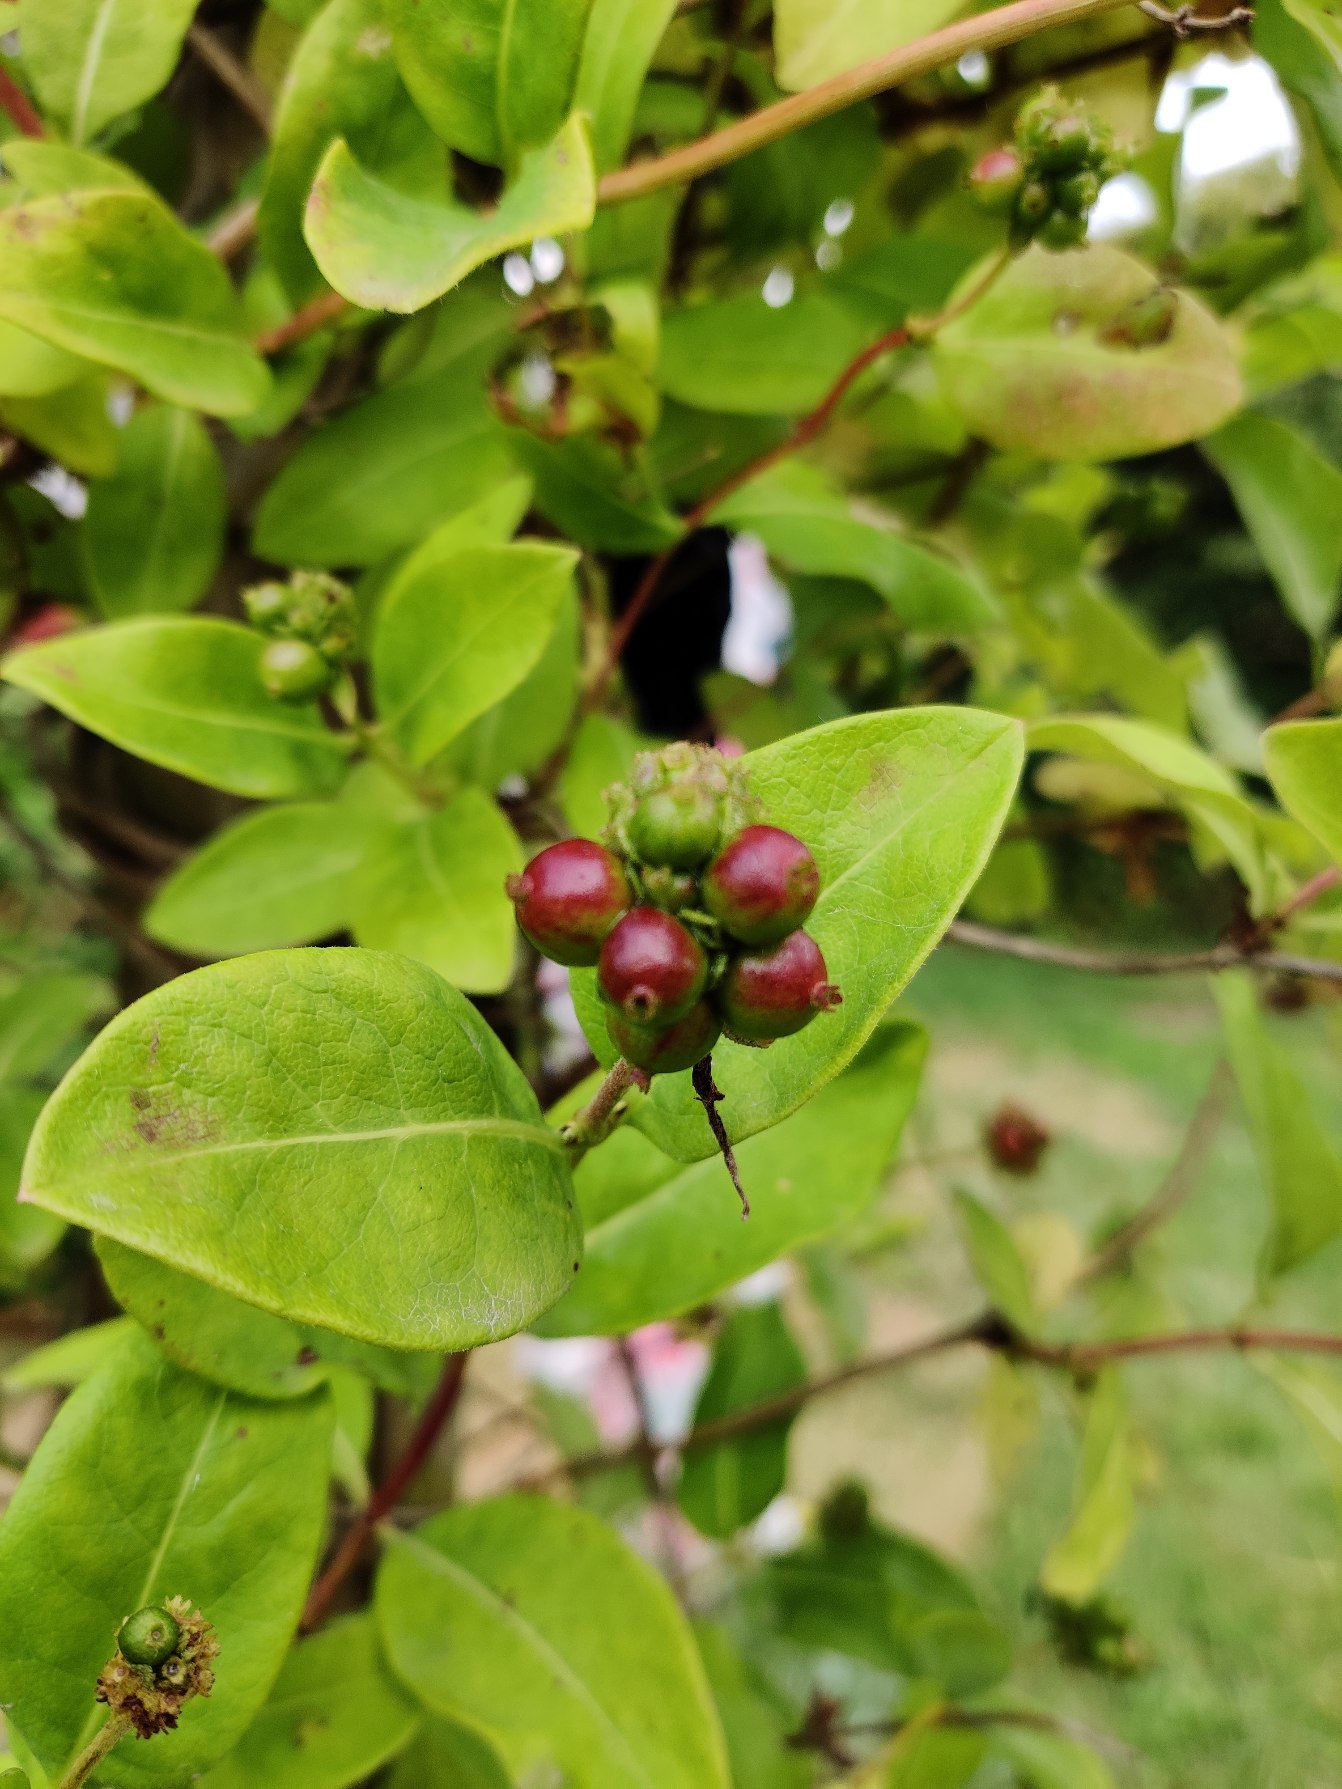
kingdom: Plantae
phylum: Tracheophyta
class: Magnoliopsida
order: Dipsacales
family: Caprifoliaceae
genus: Lonicera
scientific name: Lonicera periclymenum
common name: Almindelig gedeblad
